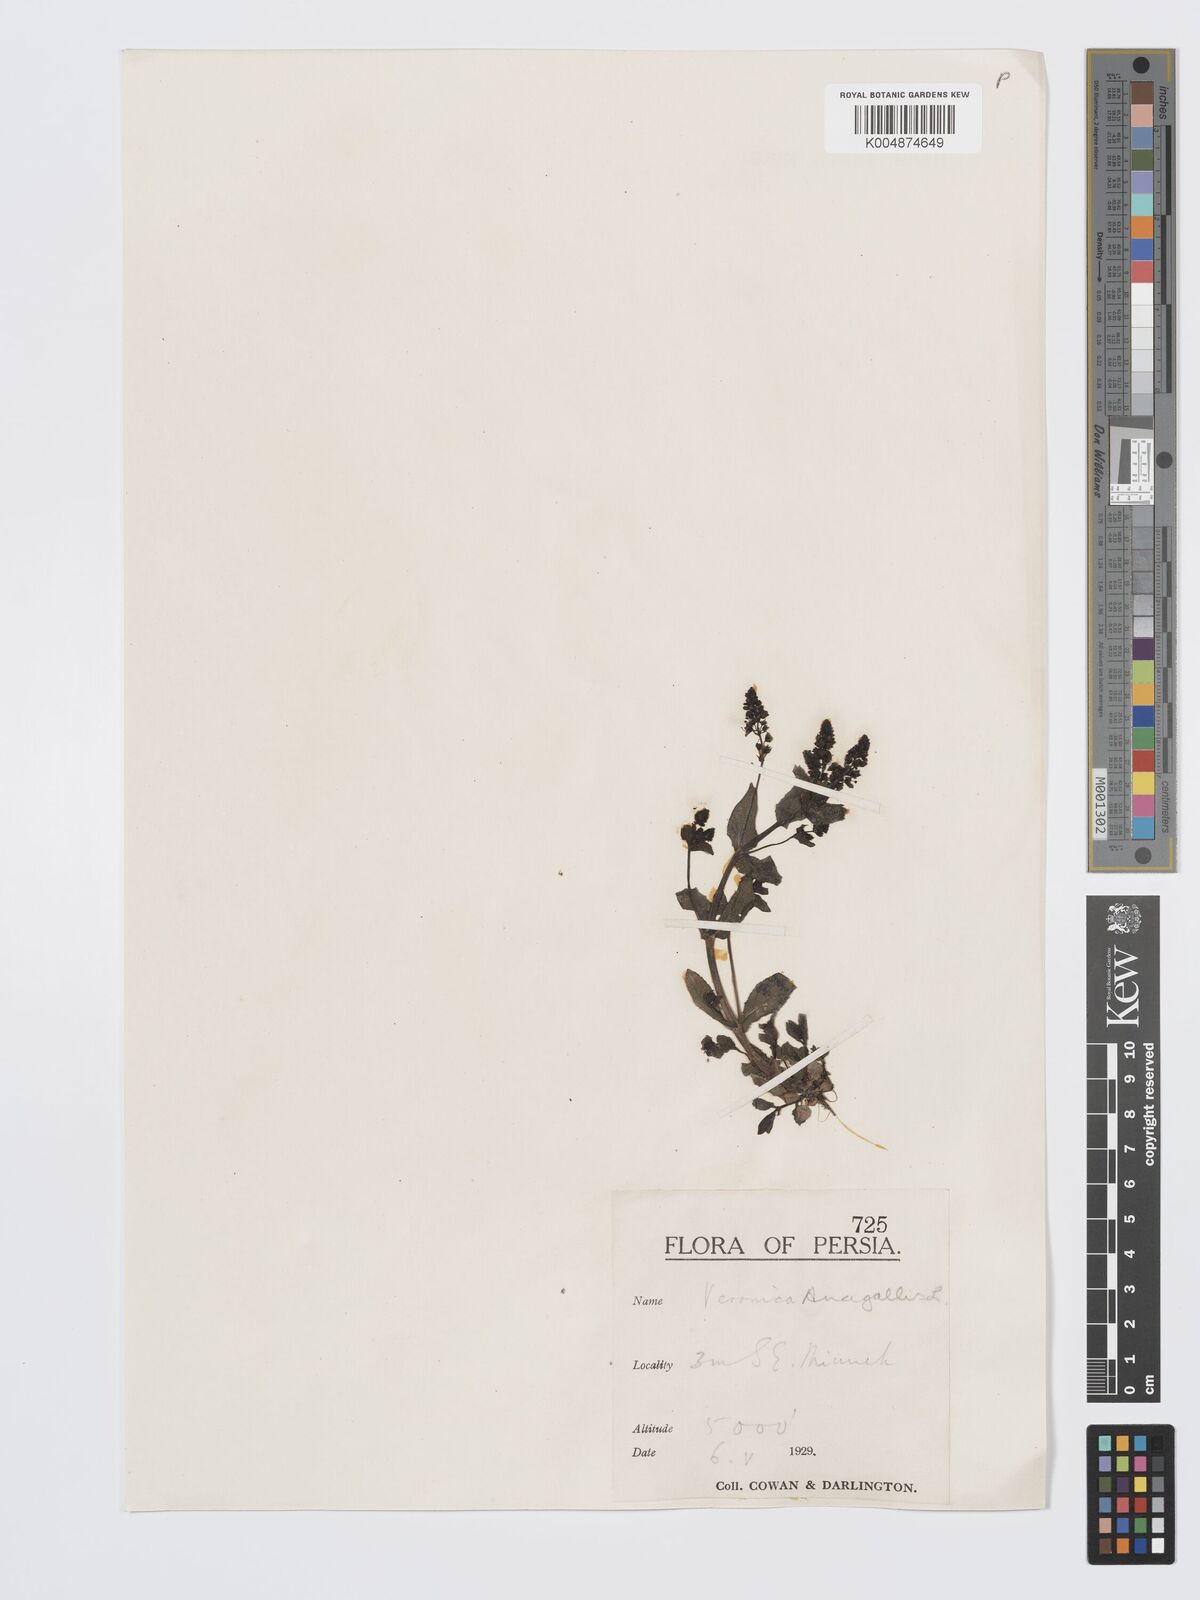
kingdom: Plantae
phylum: Tracheophyta
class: Magnoliopsida
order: Lamiales
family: Plantaginaceae
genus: Veronica
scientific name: Veronica
